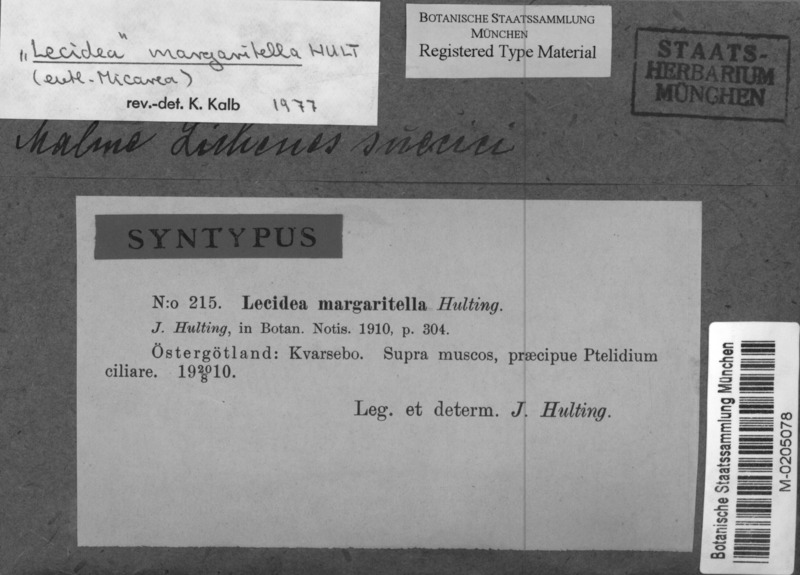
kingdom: Fungi
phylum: Ascomycota
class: Lecanoromycetes
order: Lecanorales
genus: Puttea
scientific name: Puttea margaritella
